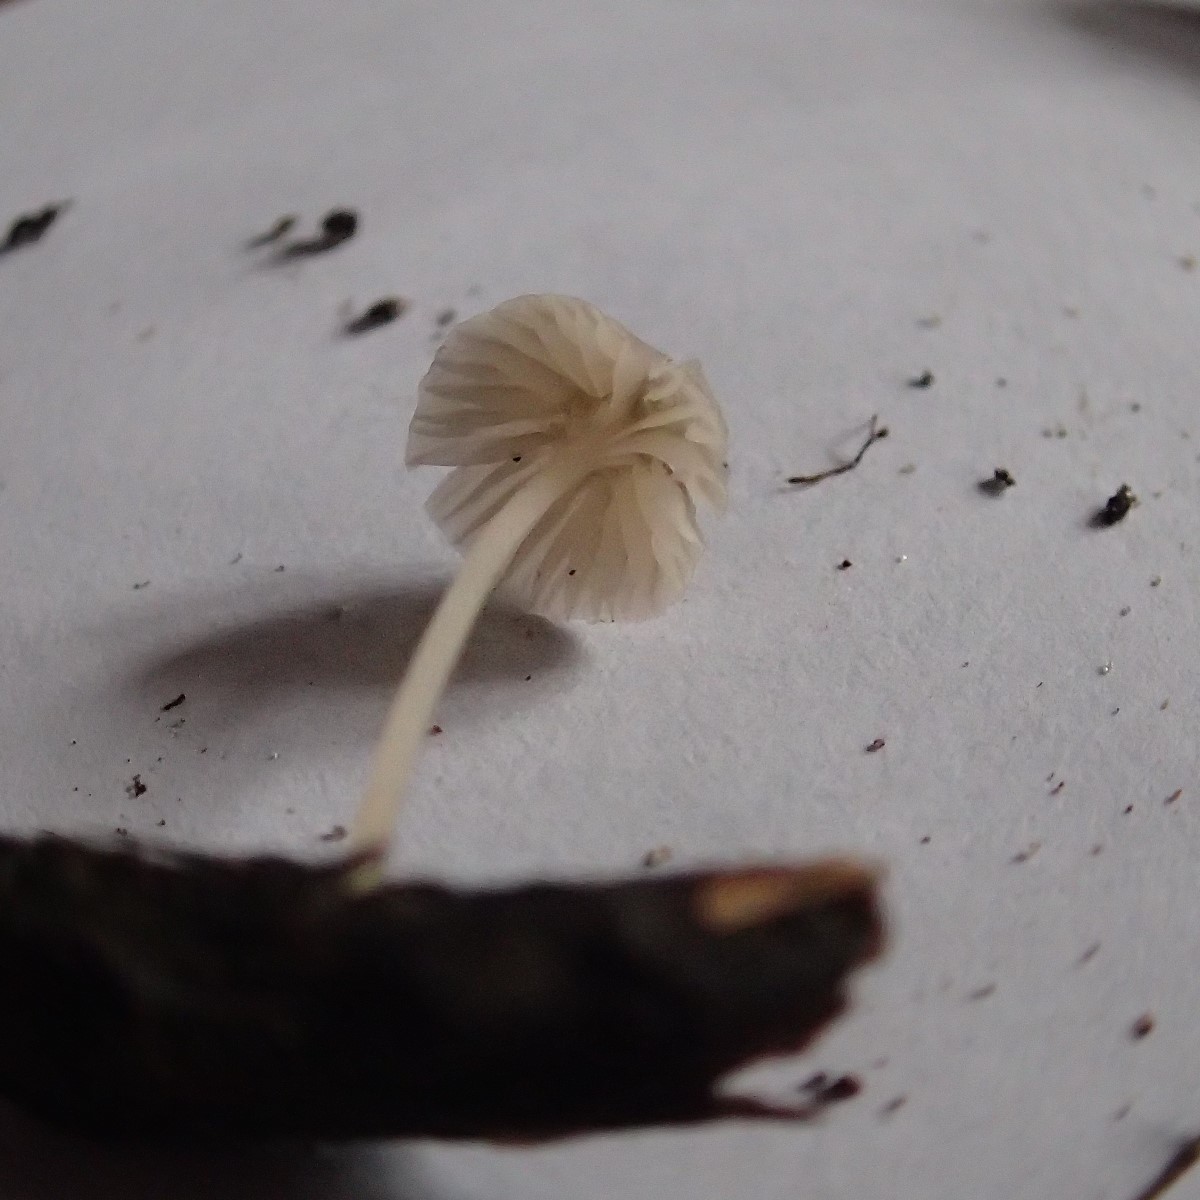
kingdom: Fungi
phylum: Basidiomycota
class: Agaricomycetes
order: Agaricales
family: Porotheleaceae
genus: Phloeomana
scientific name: Phloeomana speirea
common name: kvist-huesvamp
